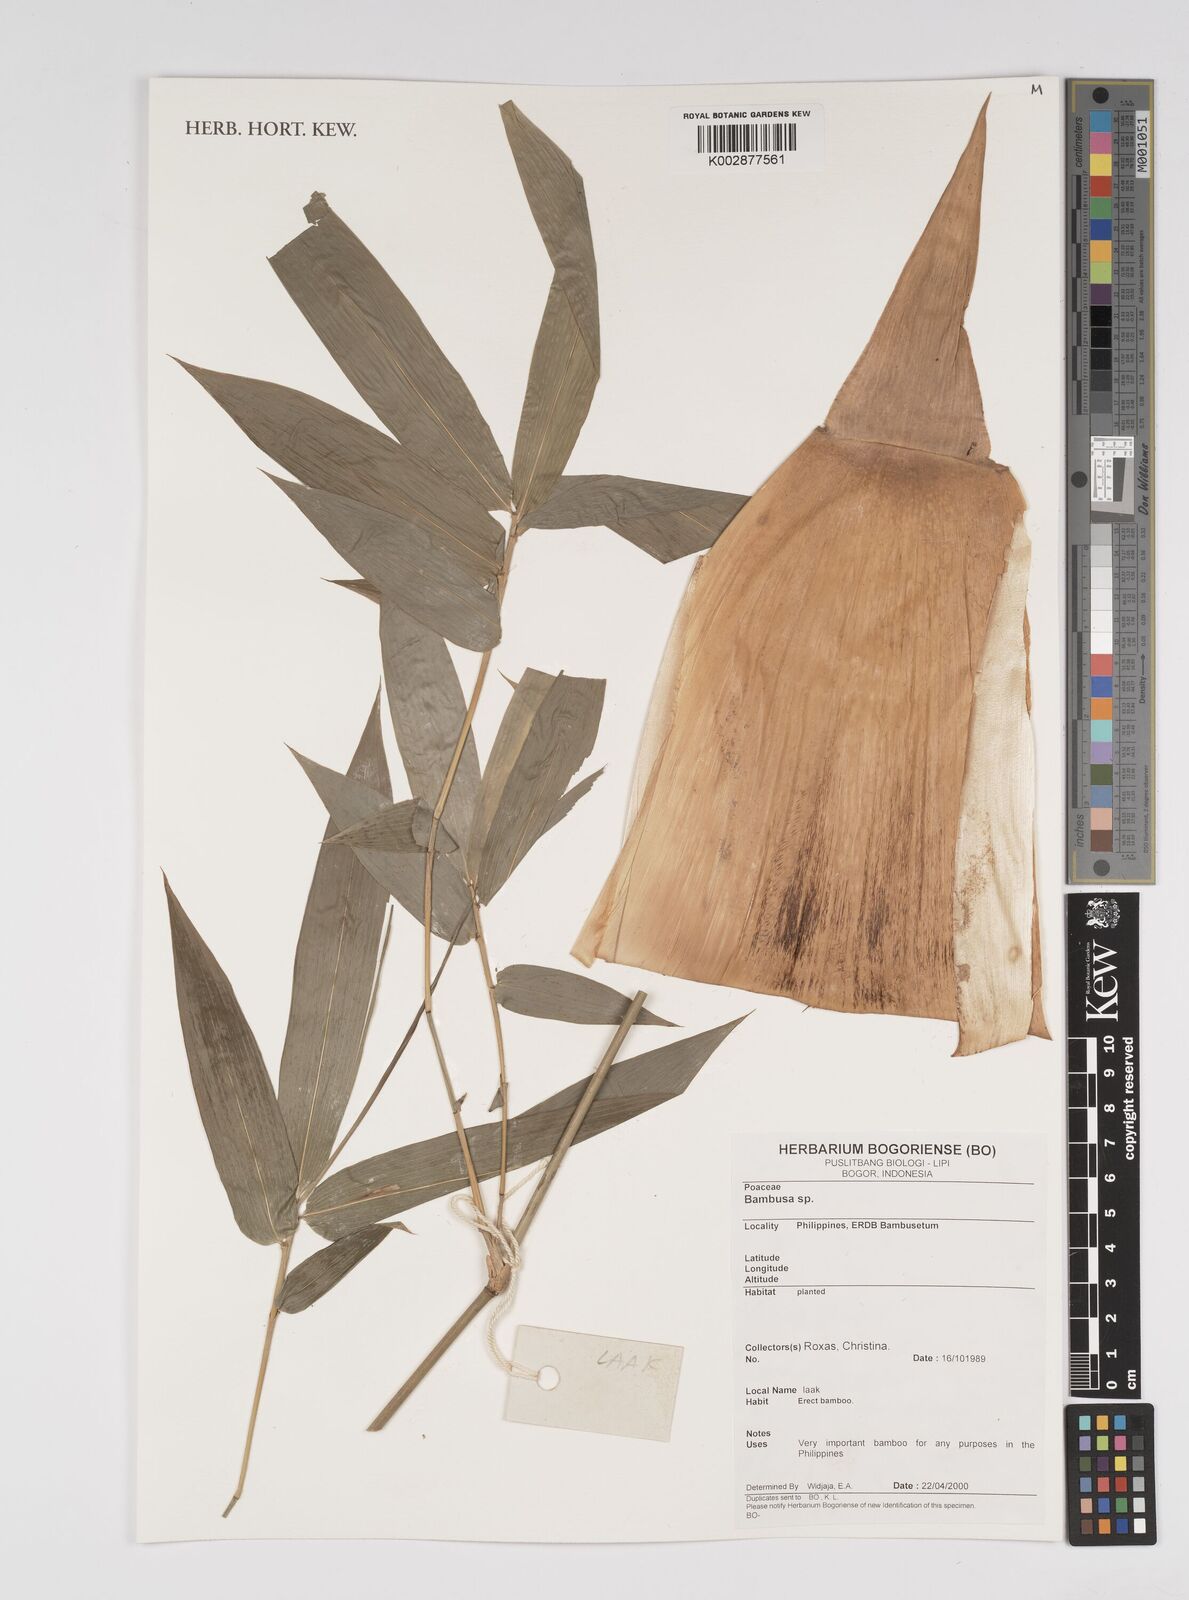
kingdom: Plantae
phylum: Tracheophyta
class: Liliopsida
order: Poales
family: Poaceae
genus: Bambusa
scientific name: Bambusa
